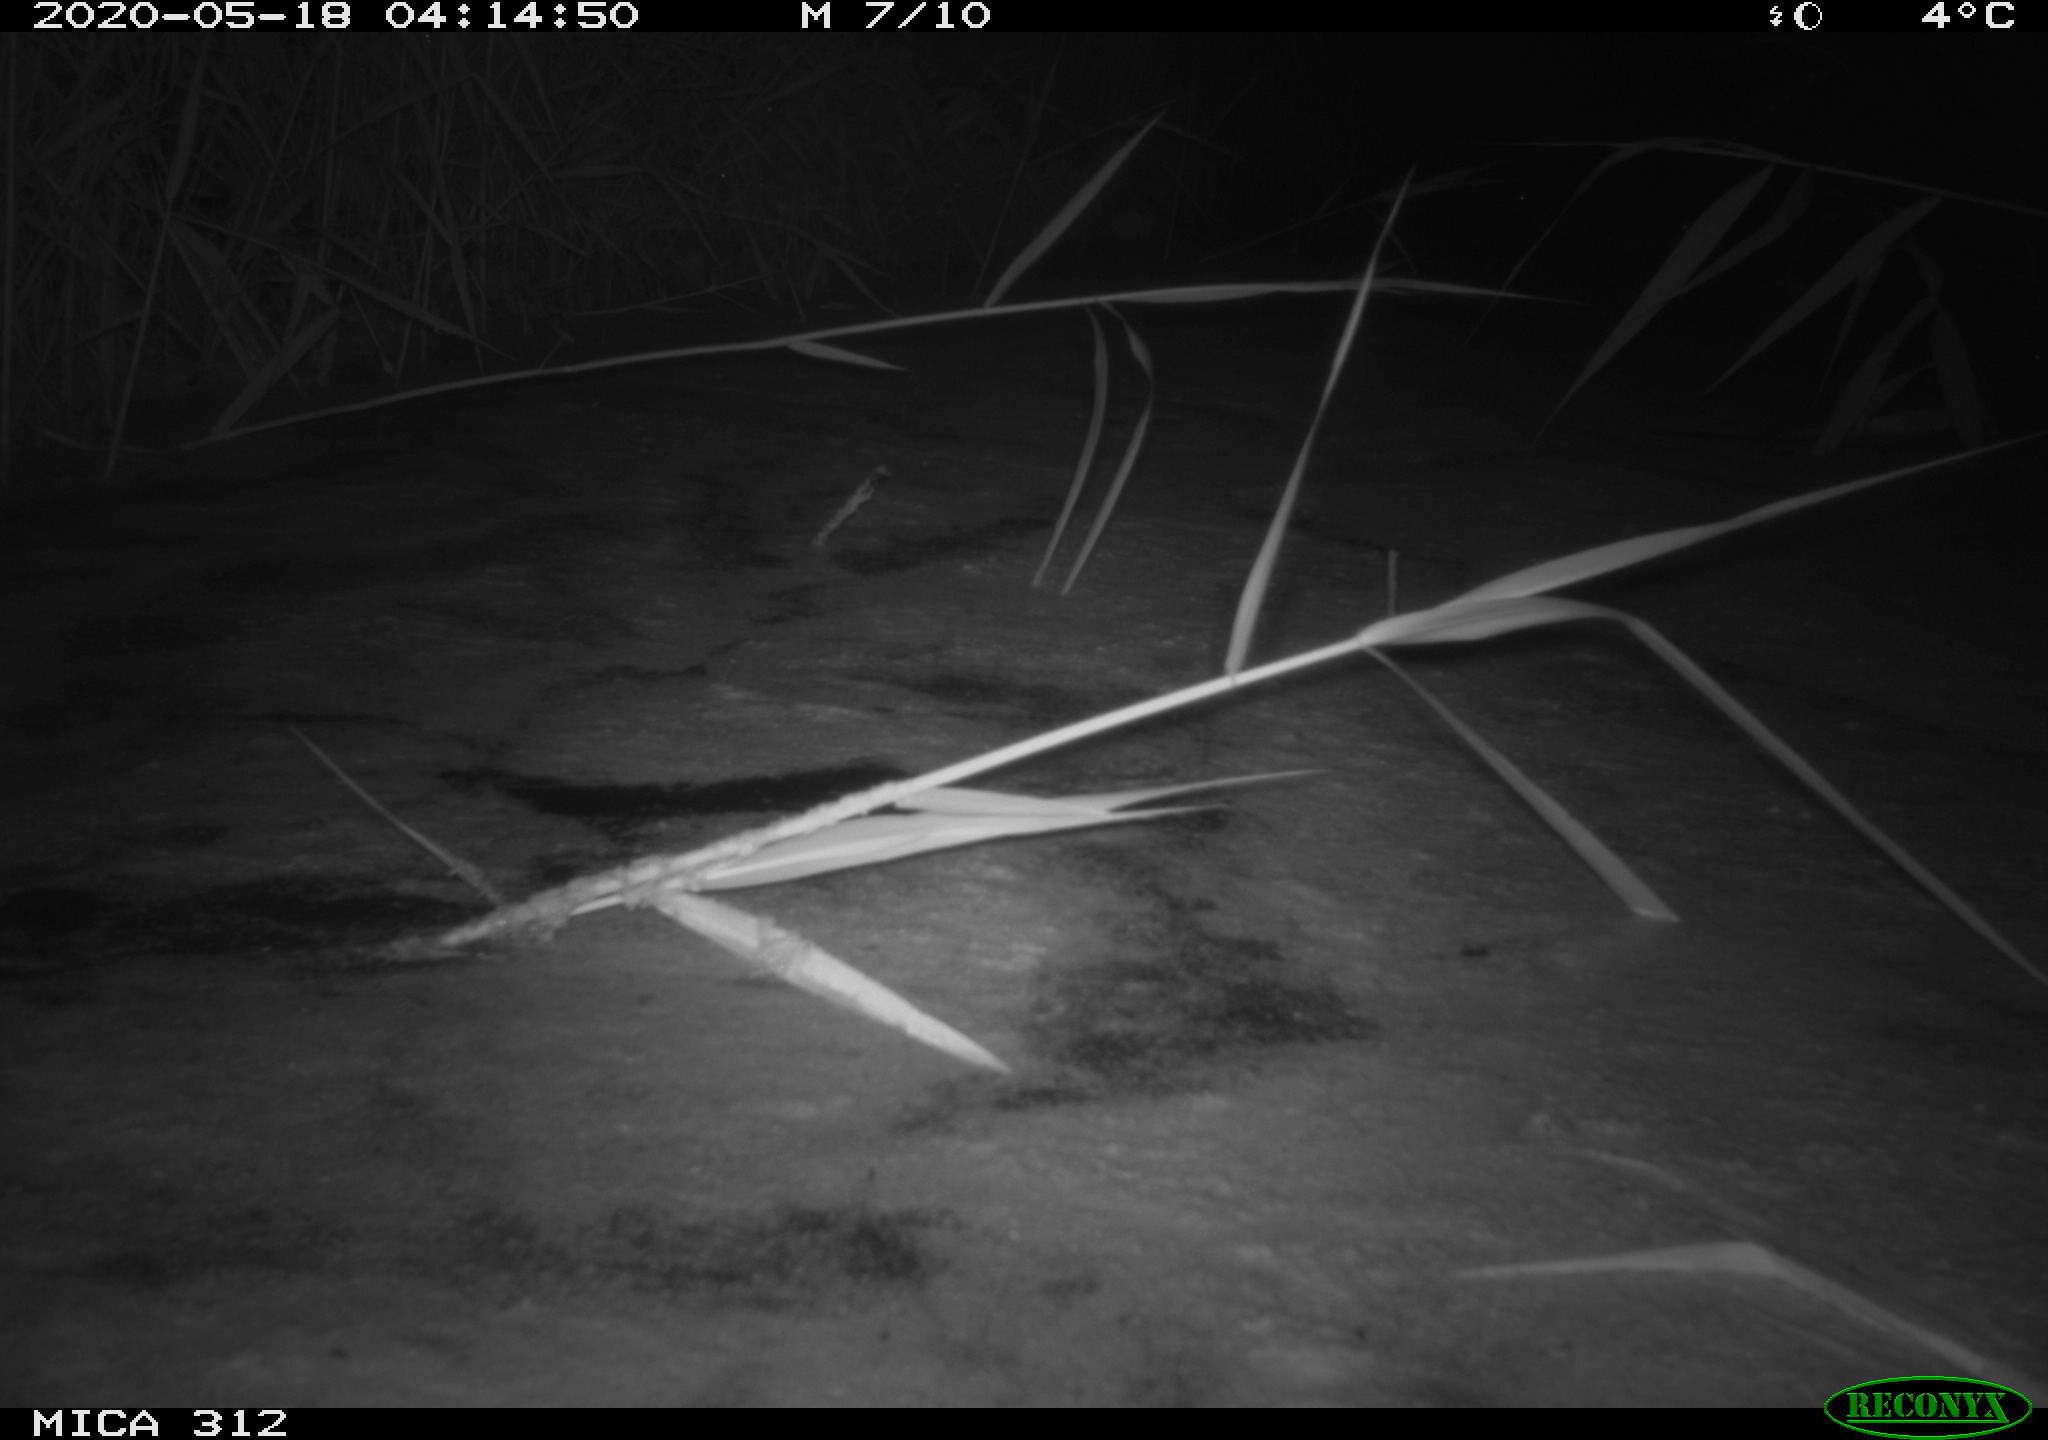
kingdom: Animalia
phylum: Chordata
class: Mammalia
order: Rodentia
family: Cricetidae
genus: Ondatra
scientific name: Ondatra zibethicus
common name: Muskrat
